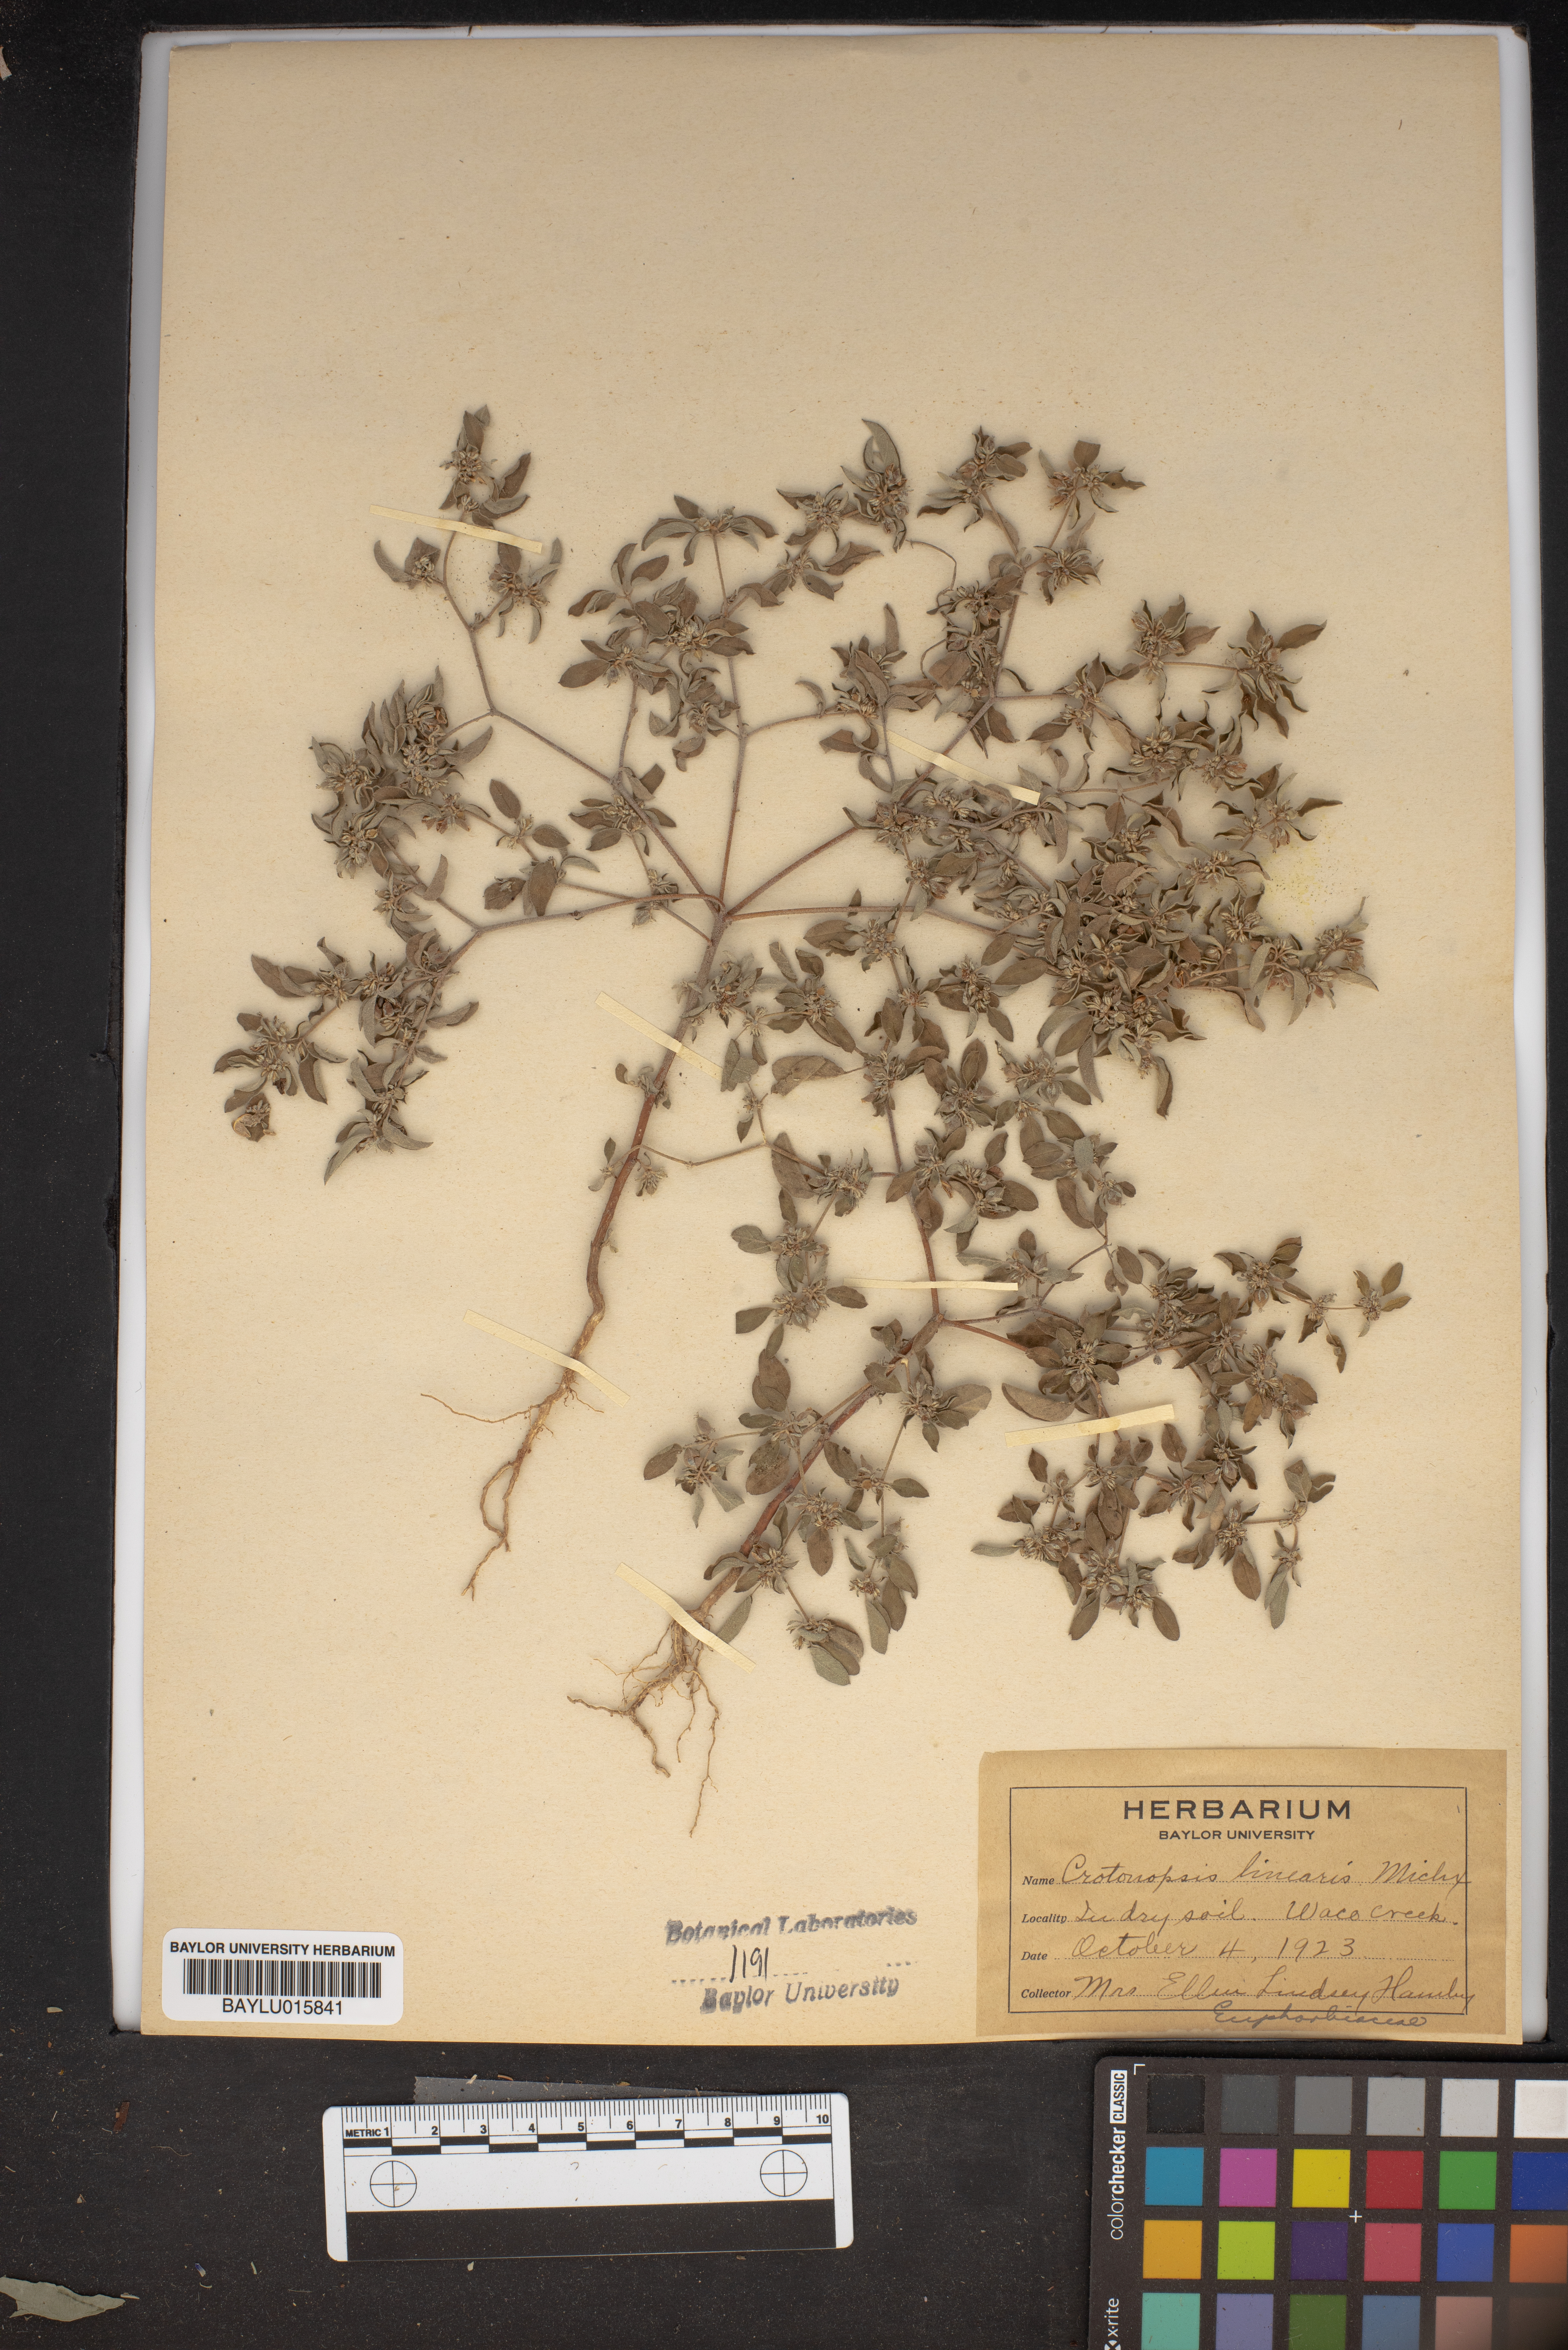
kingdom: Plantae
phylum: Tracheophyta
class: Magnoliopsida
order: Malpighiales
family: Euphorbiaceae
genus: Croton
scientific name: Croton michauxii
